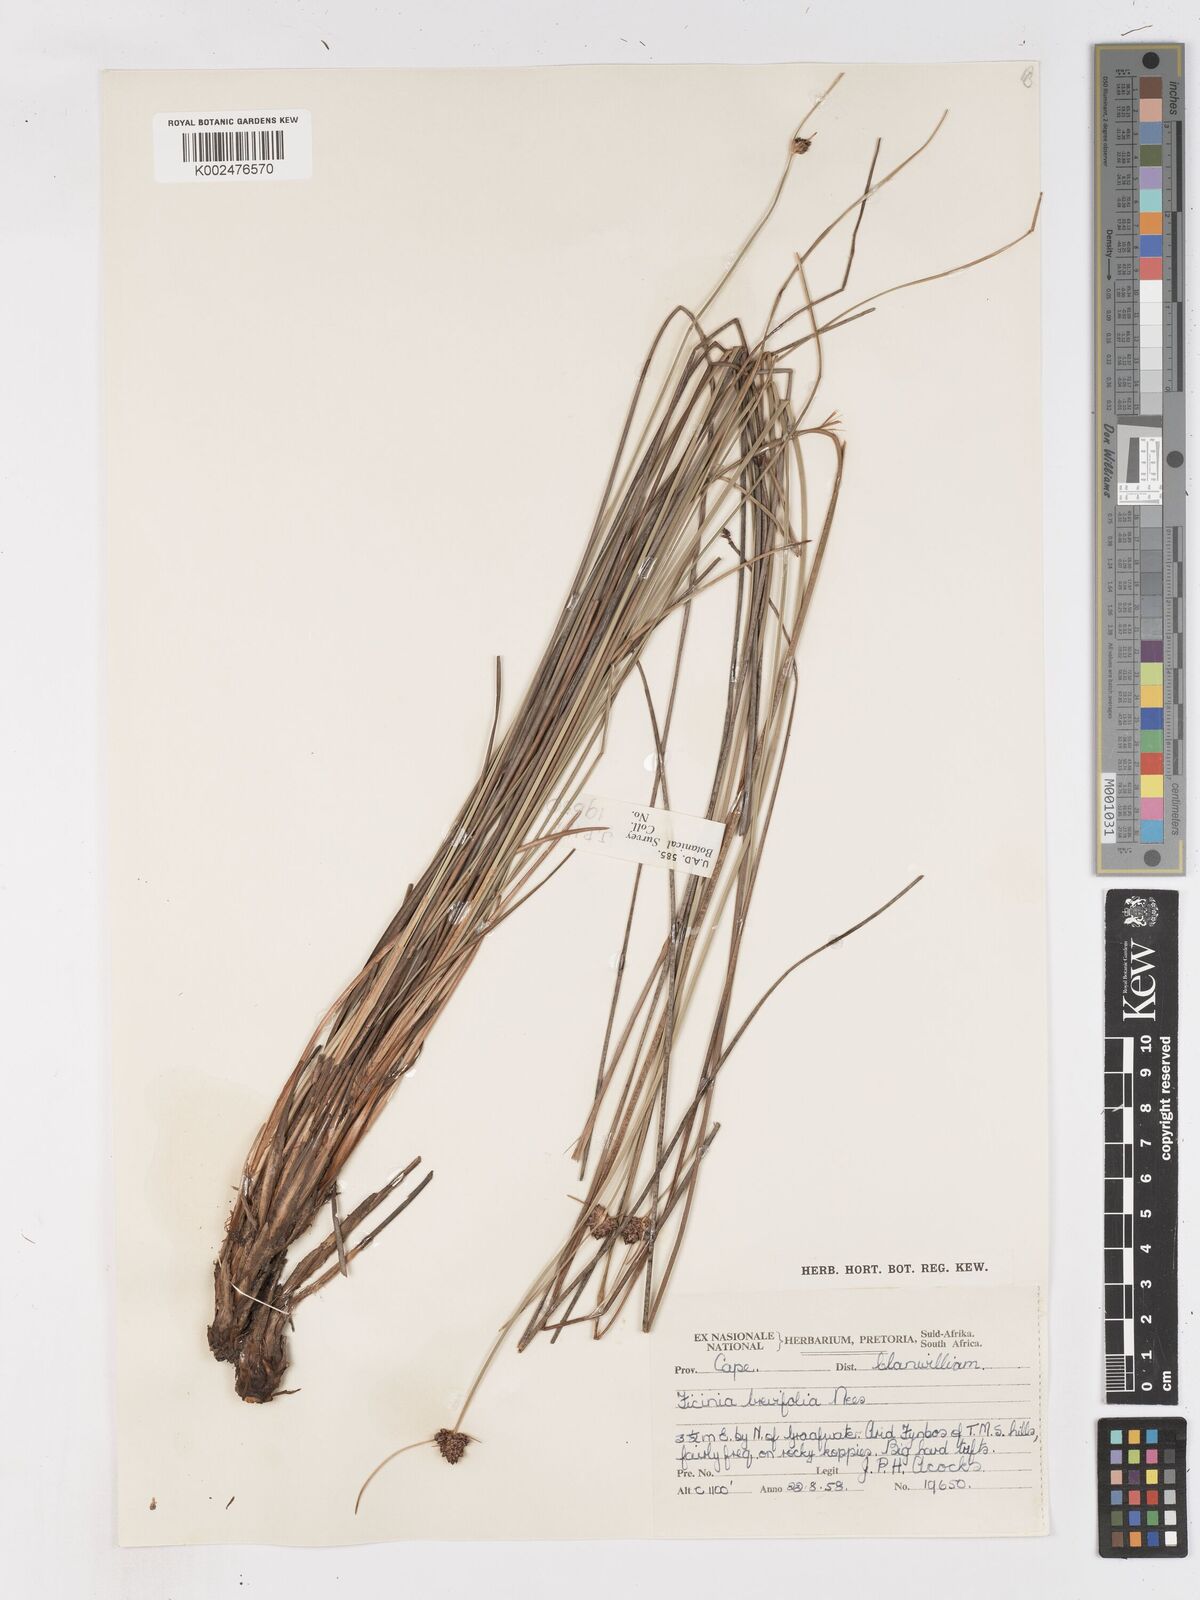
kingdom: Plantae
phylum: Tracheophyta
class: Liliopsida
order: Poales
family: Cyperaceae
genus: Ficinia
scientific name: Ficinia
